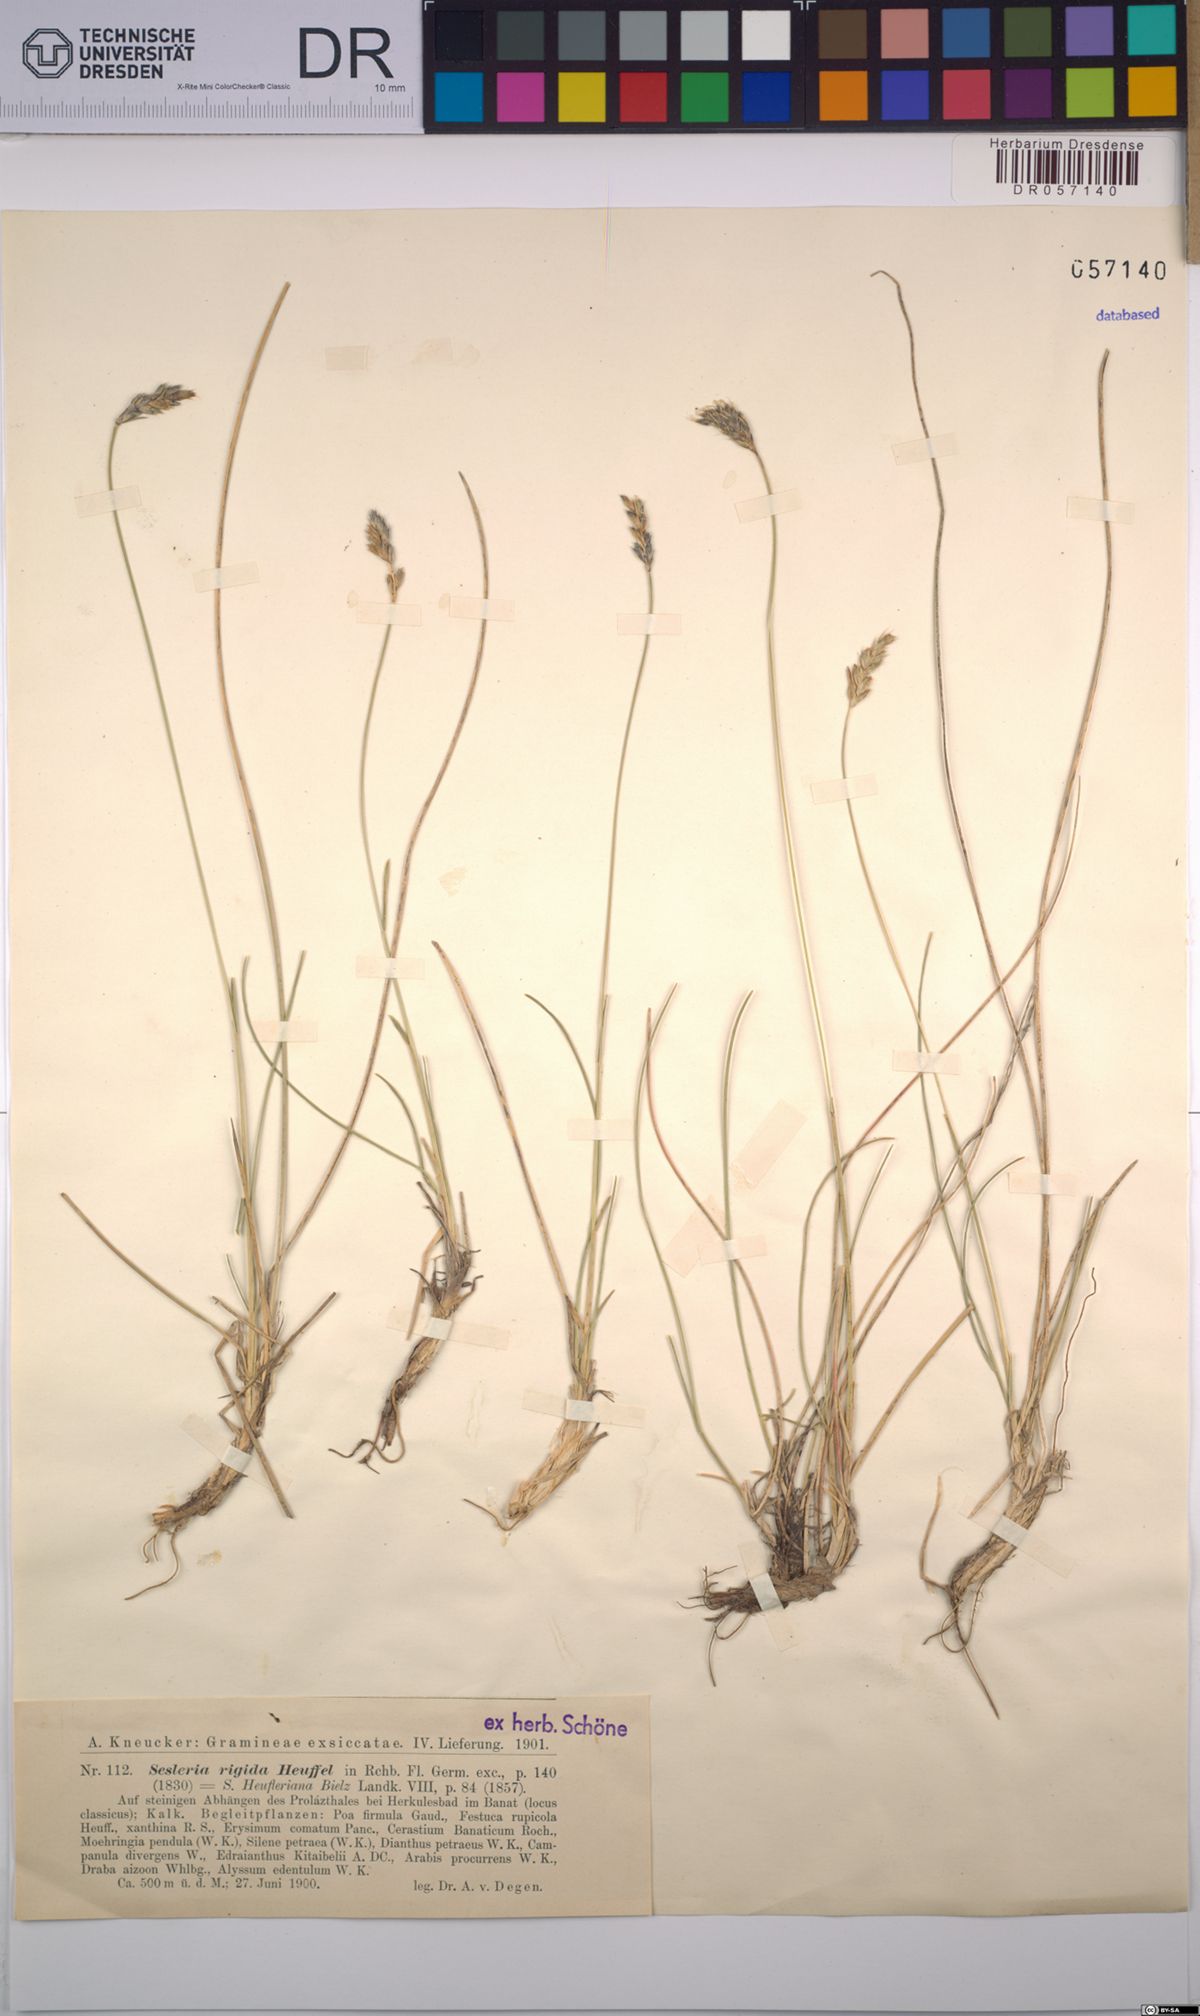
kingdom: Plantae
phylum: Tracheophyta
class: Liliopsida
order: Poales
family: Poaceae
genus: Sesleria
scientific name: Sesleria rigida
